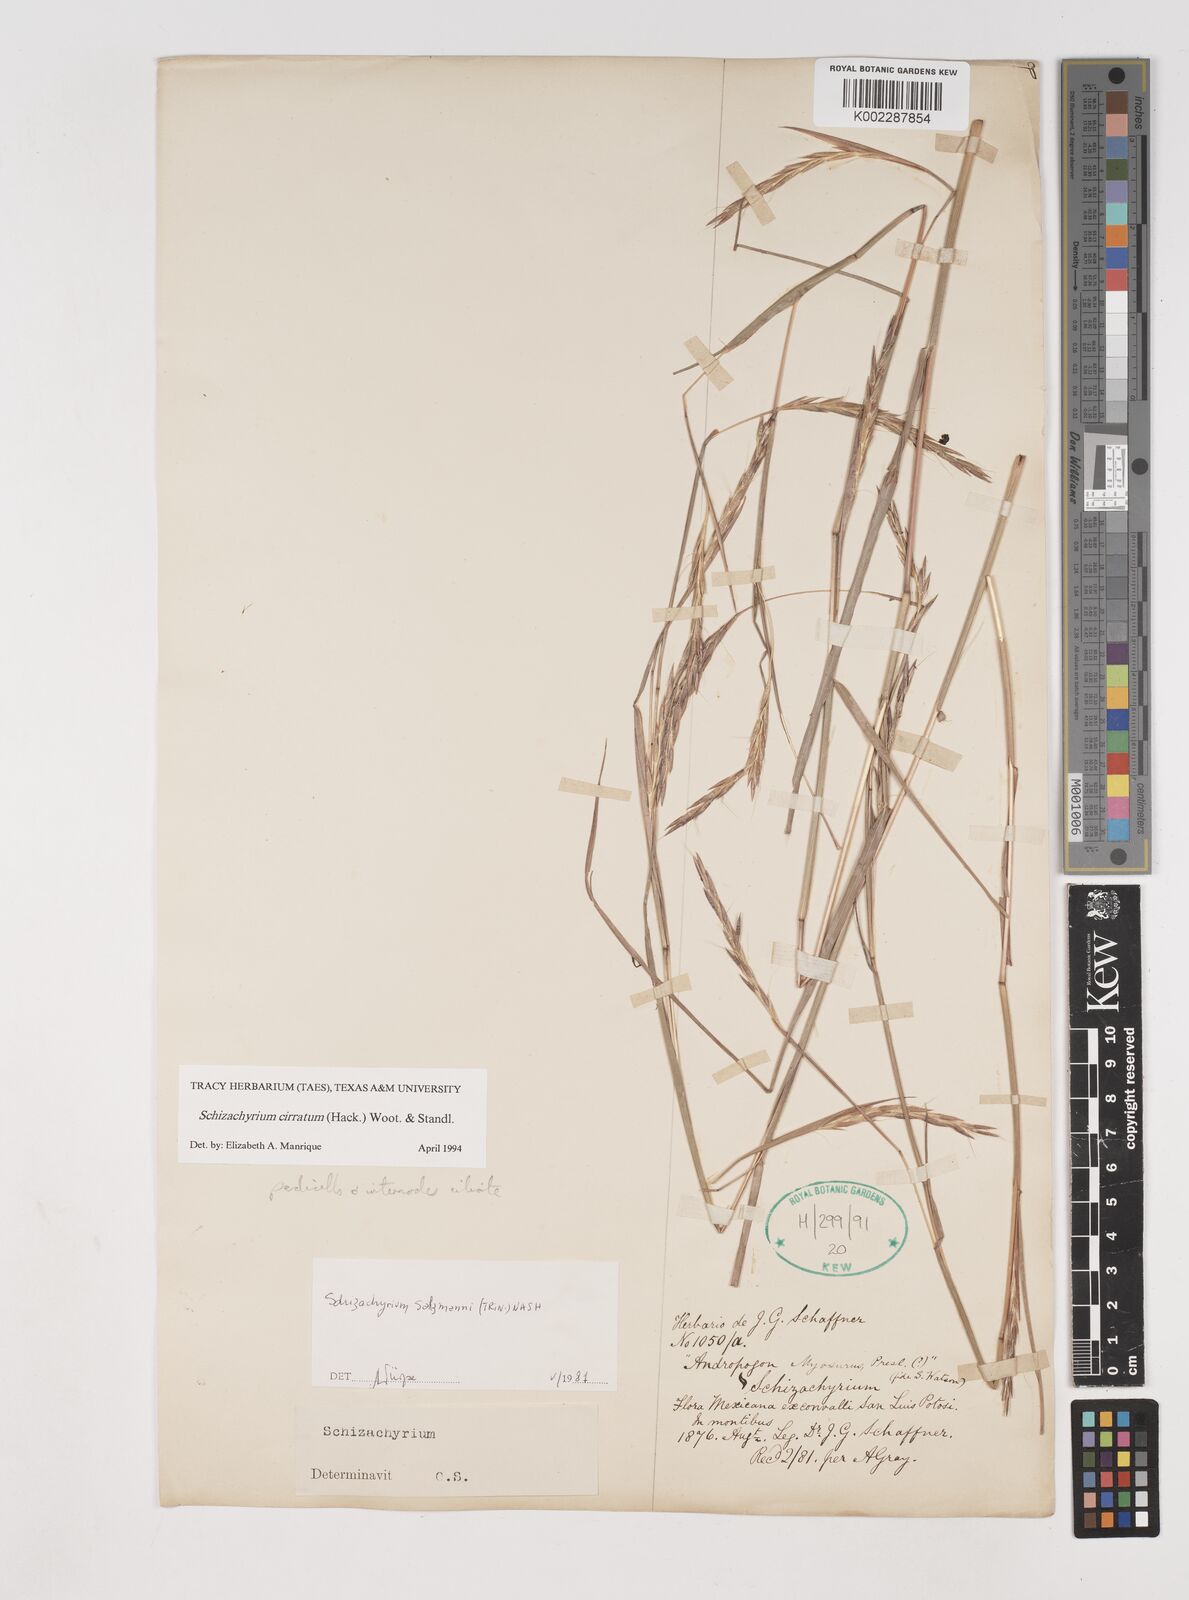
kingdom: Plantae
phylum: Tracheophyta
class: Liliopsida
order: Poales
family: Poaceae
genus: Andropogon
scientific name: Andropogon cirratus
